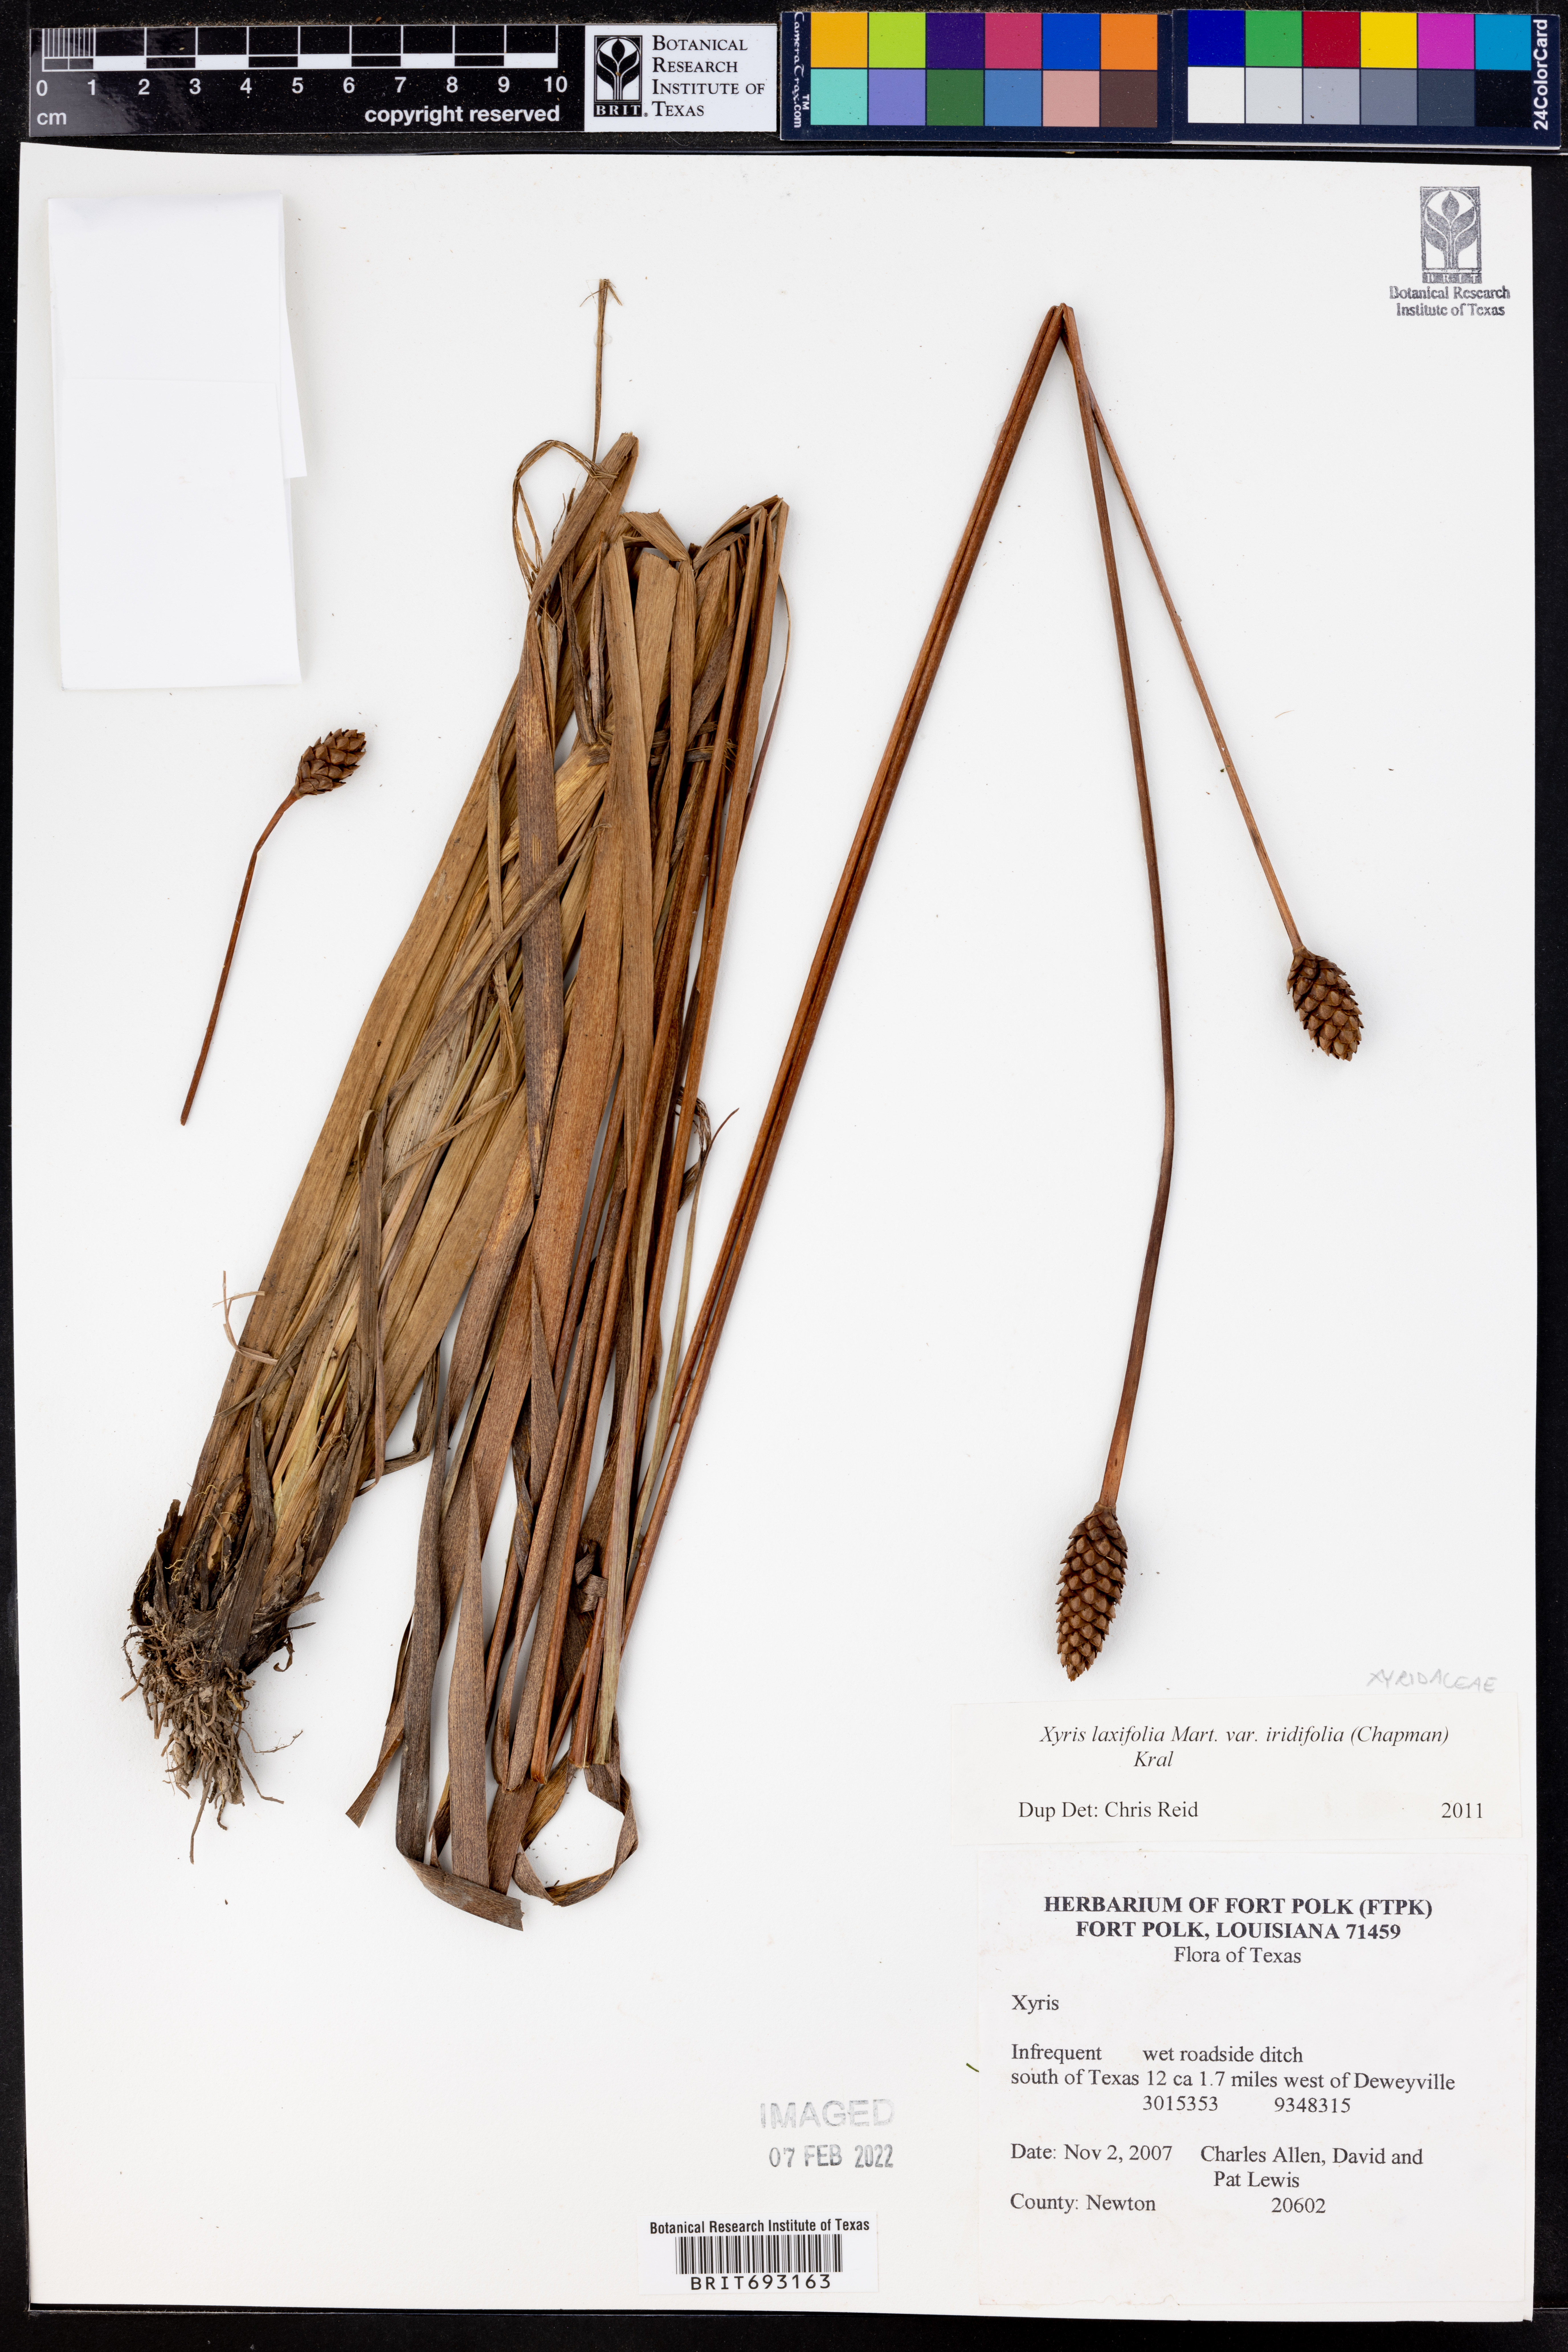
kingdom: Plantae
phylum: Tracheophyta
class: Liliopsida
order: Poales
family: Xyridaceae
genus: Xyris
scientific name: Xyris laxifolia
